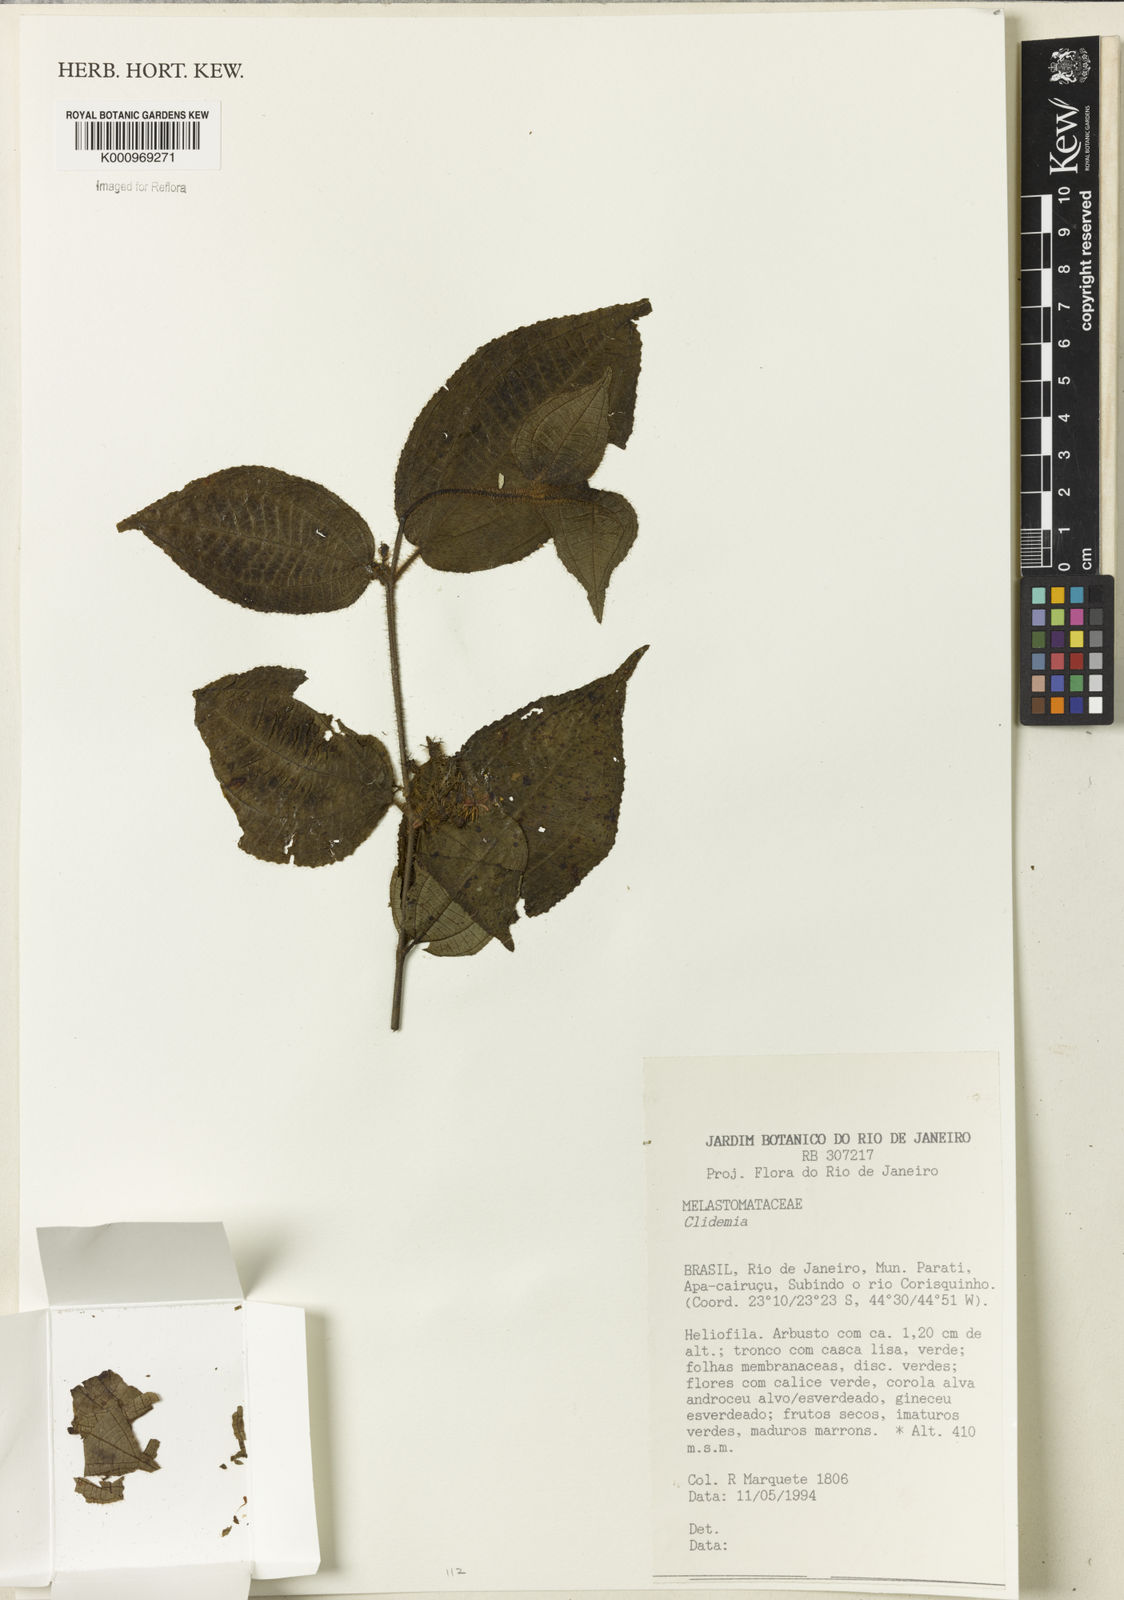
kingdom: Plantae
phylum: Tracheophyta
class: Magnoliopsida
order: Myrtales
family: Melastomataceae
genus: Miconia
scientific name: Miconia
